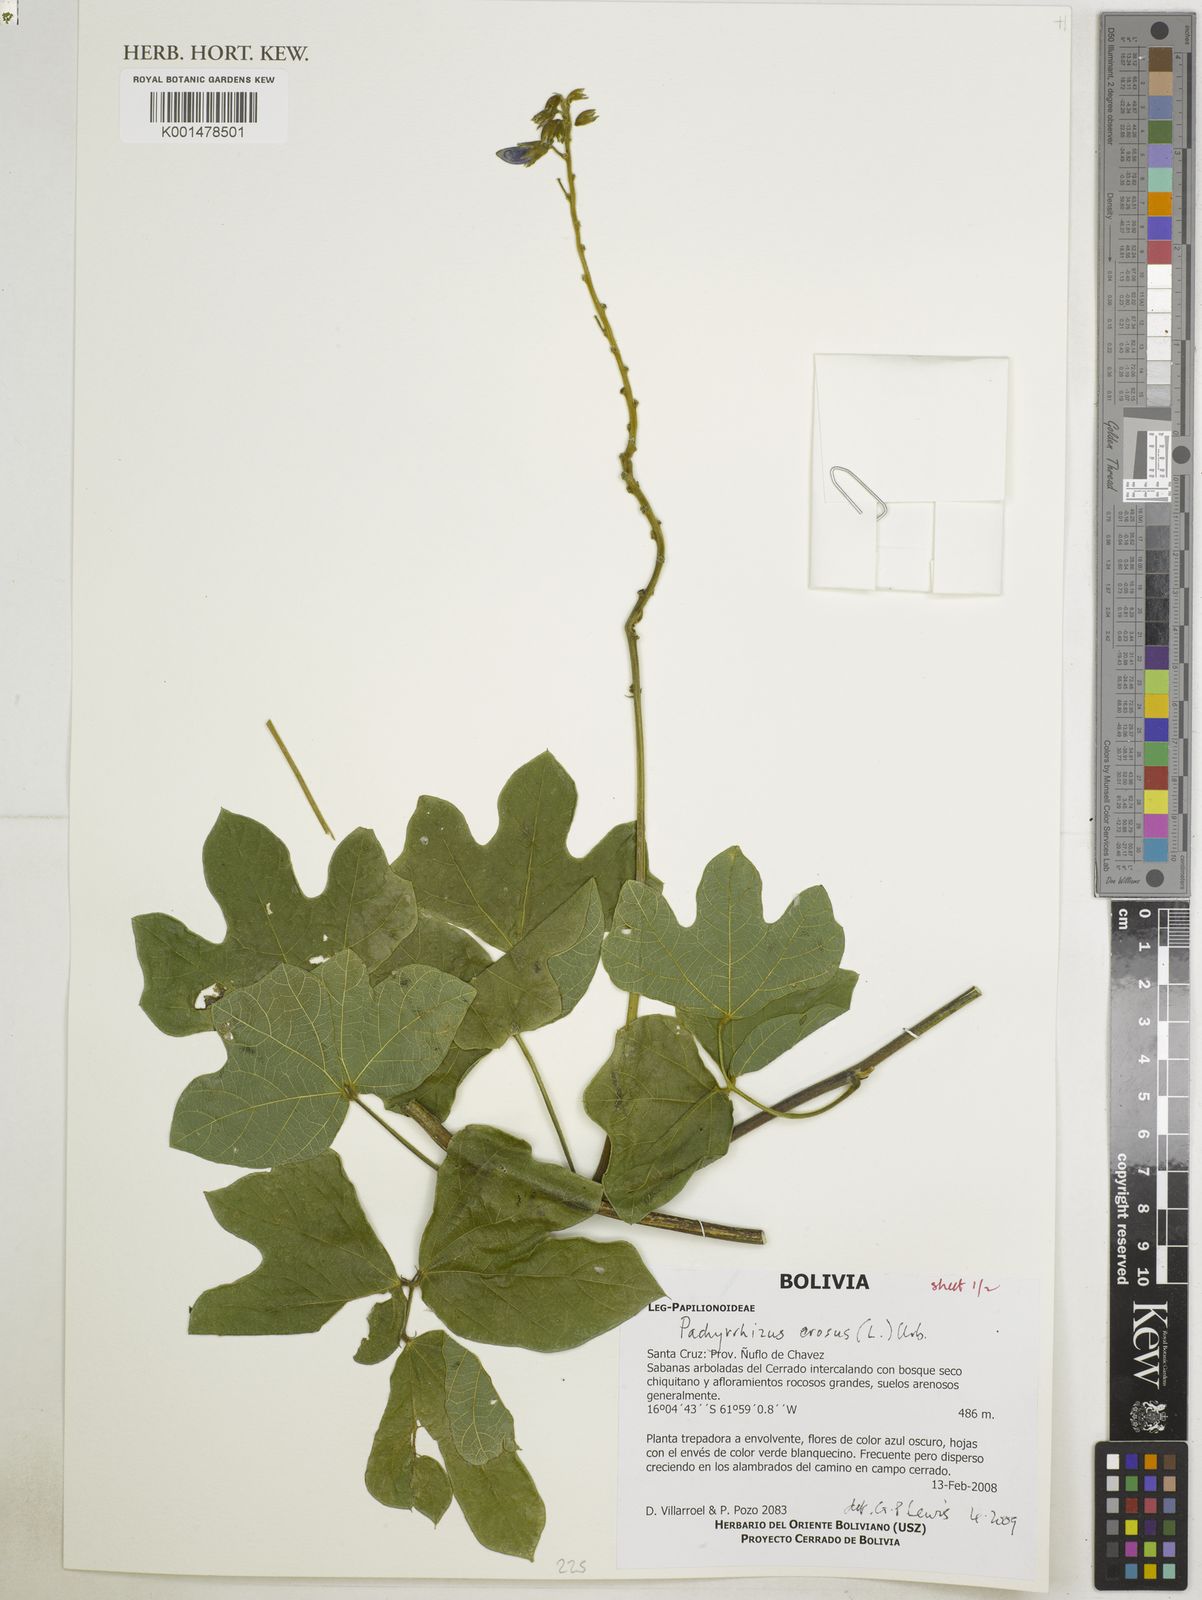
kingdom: Plantae
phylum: Tracheophyta
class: Magnoliopsida
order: Fabales
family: Fabaceae
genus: Pachyrhizus
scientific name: Pachyrhizus erosus
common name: Yam bean
